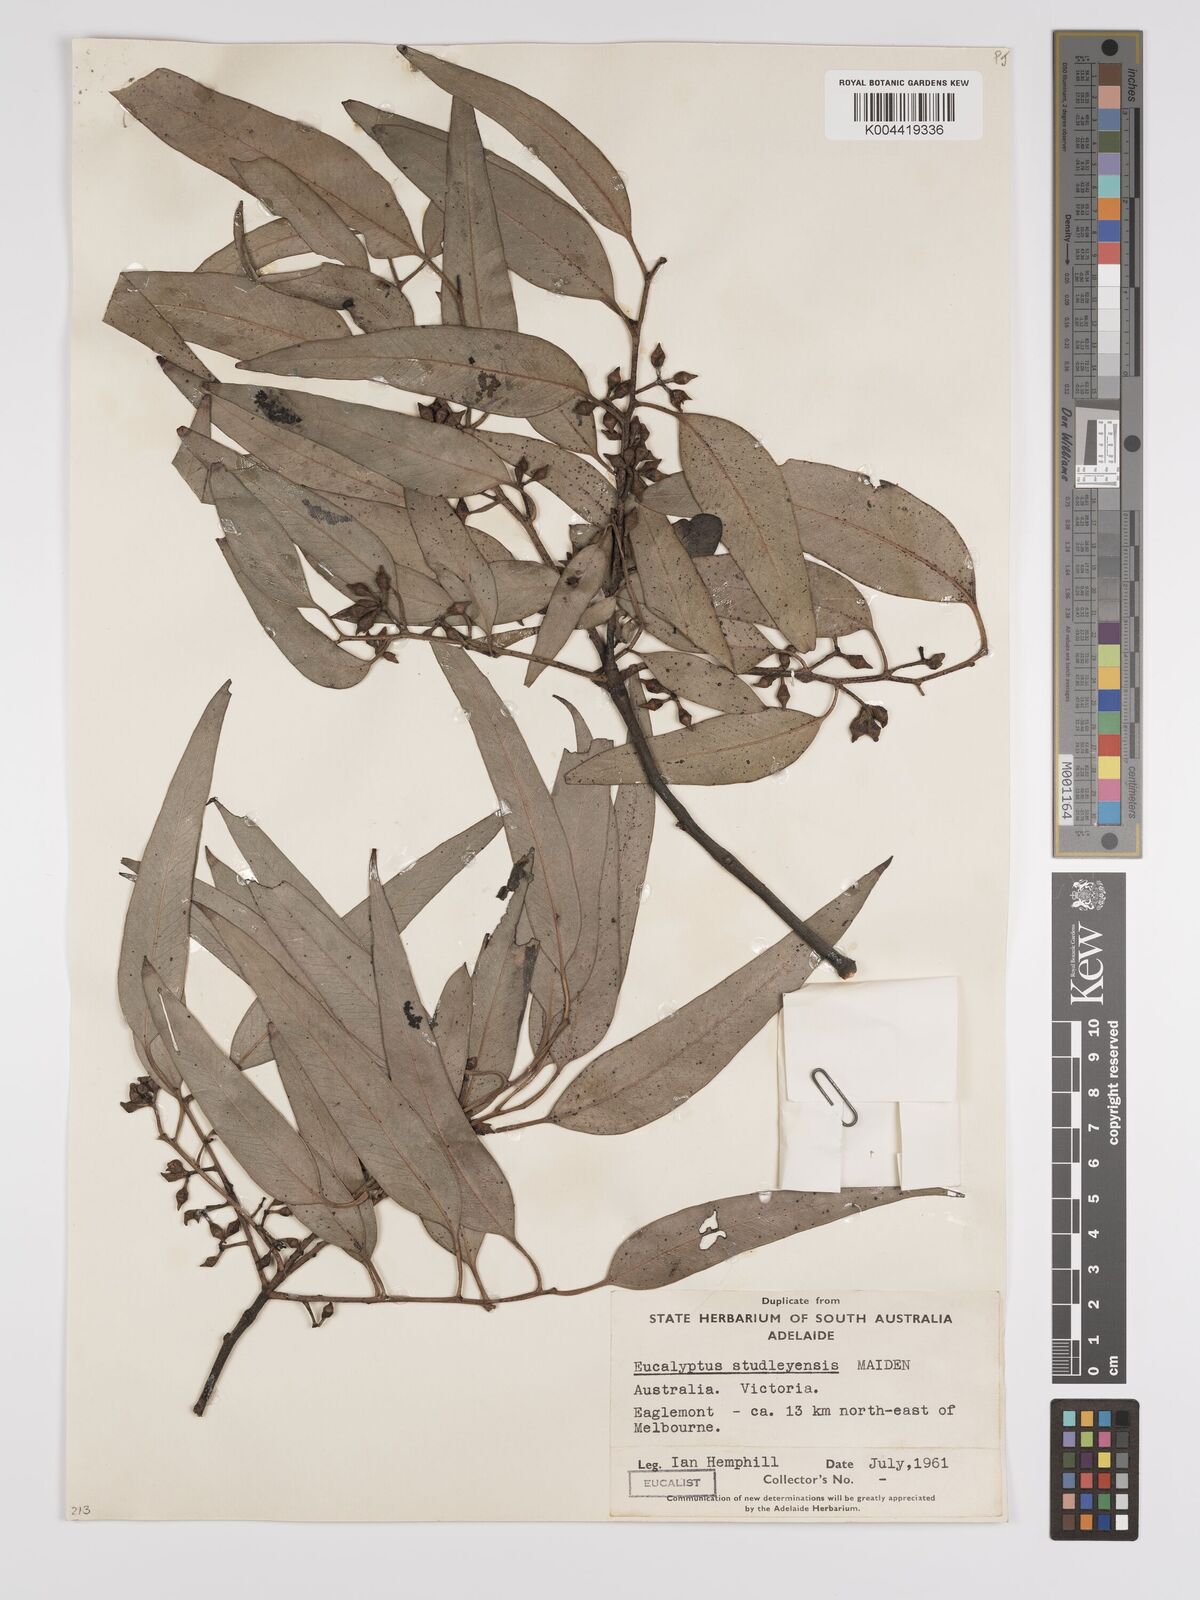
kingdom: Plantae
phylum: Tracheophyta
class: Magnoliopsida
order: Myrtales
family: Myrtaceae
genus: Eucalyptus
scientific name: Eucalyptus studleyensis
